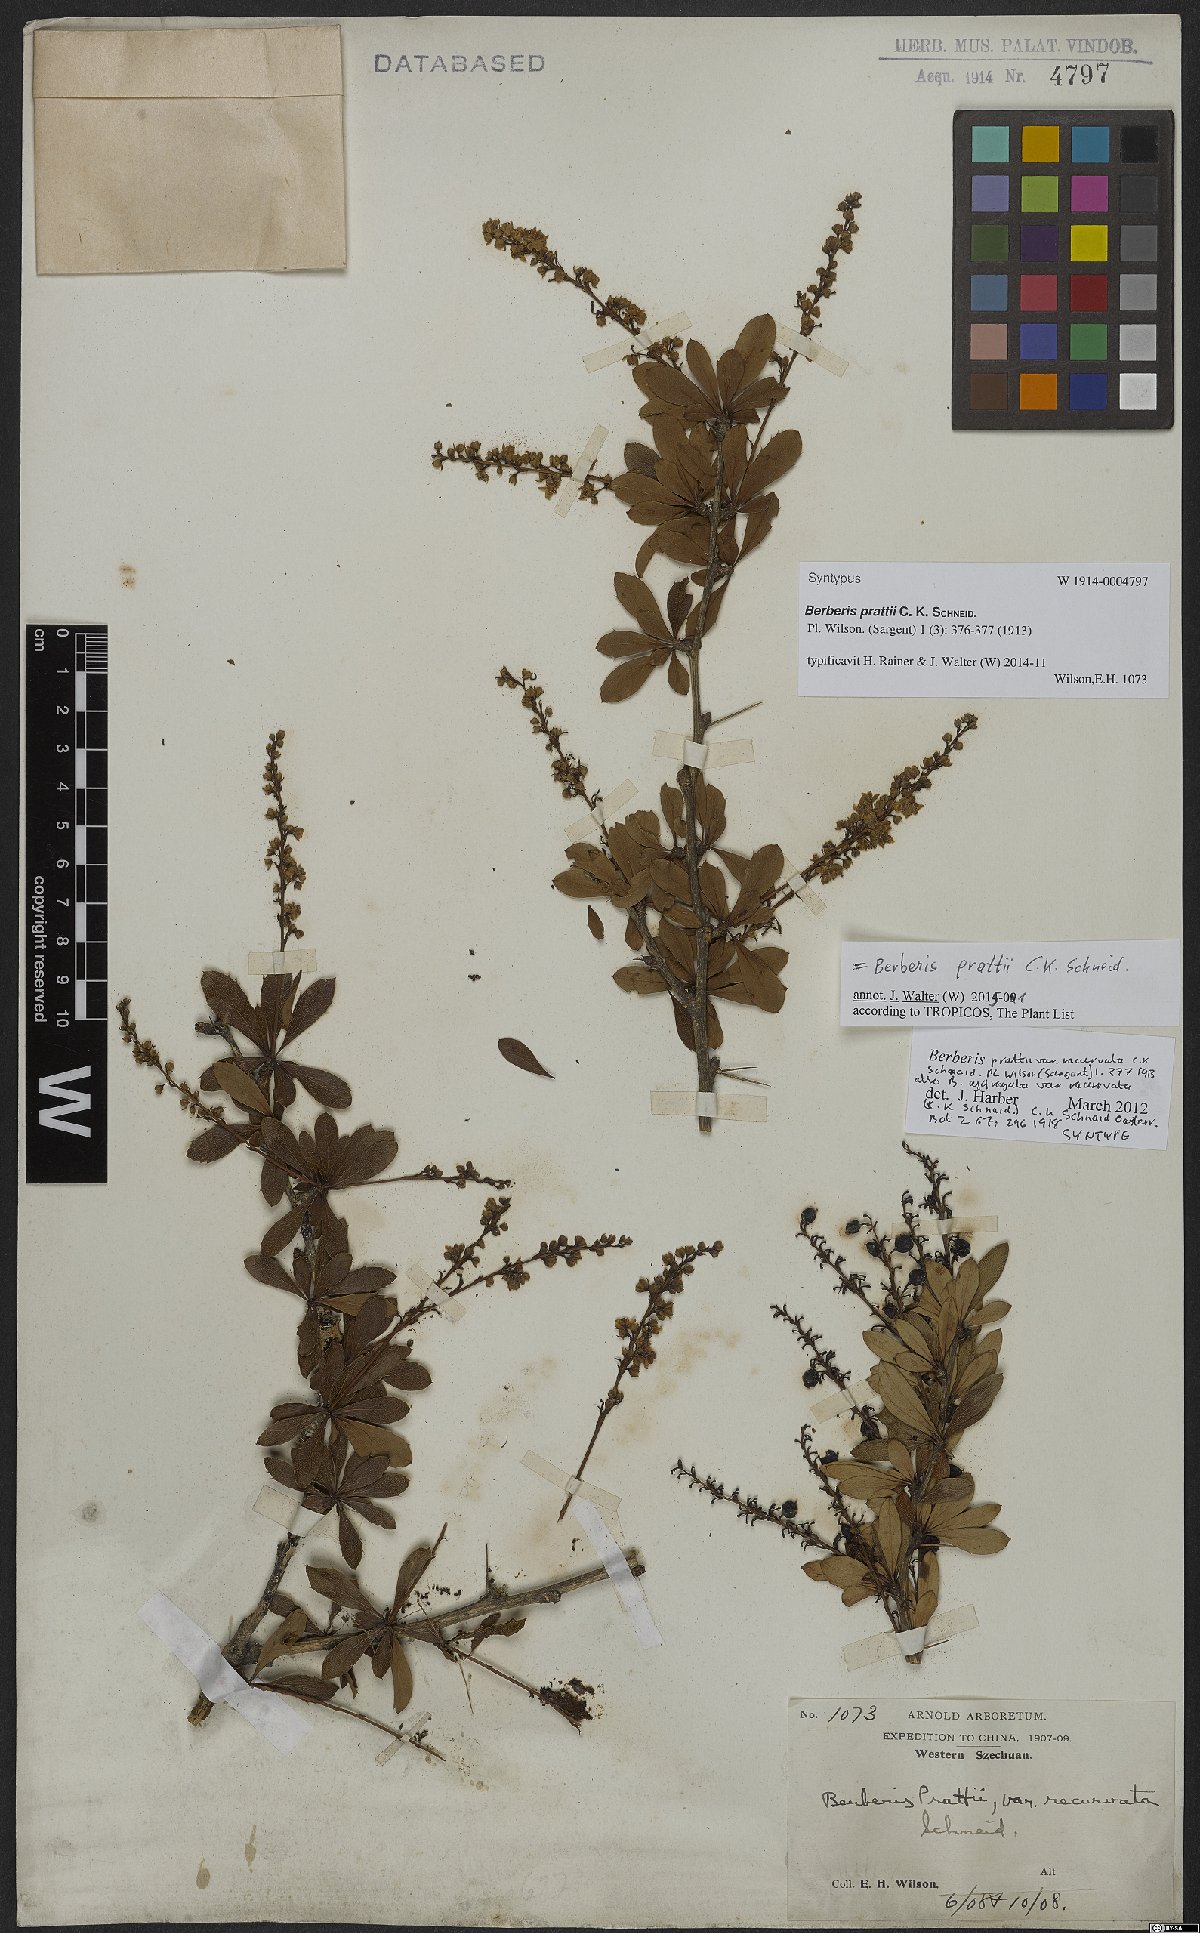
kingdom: Plantae
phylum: Tracheophyta
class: Magnoliopsida
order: Ranunculales
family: Berberidaceae
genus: Berberis
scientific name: Berberis prattii
